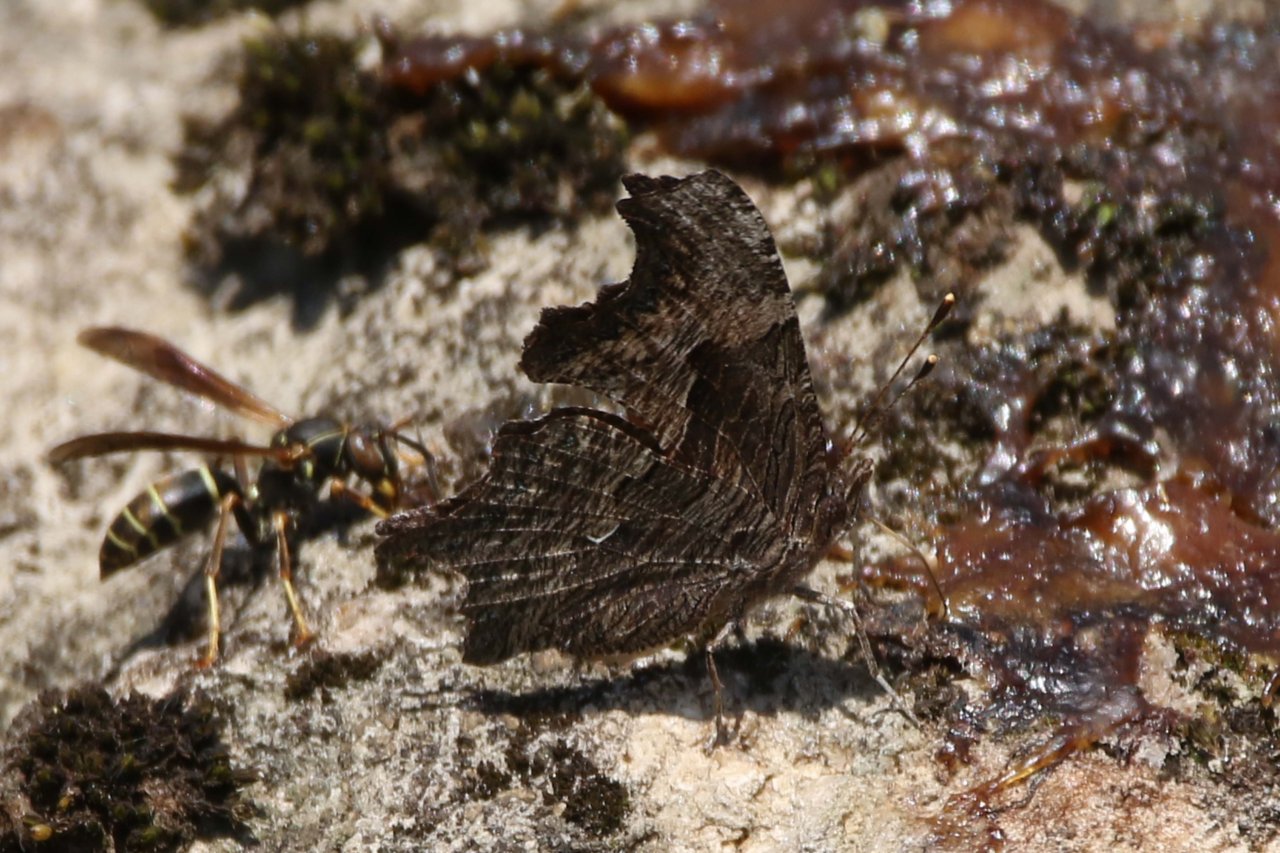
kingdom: Animalia
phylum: Arthropoda
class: Insecta
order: Lepidoptera
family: Nymphalidae
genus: Polygonia
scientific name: Polygonia progne
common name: Gray Comma
